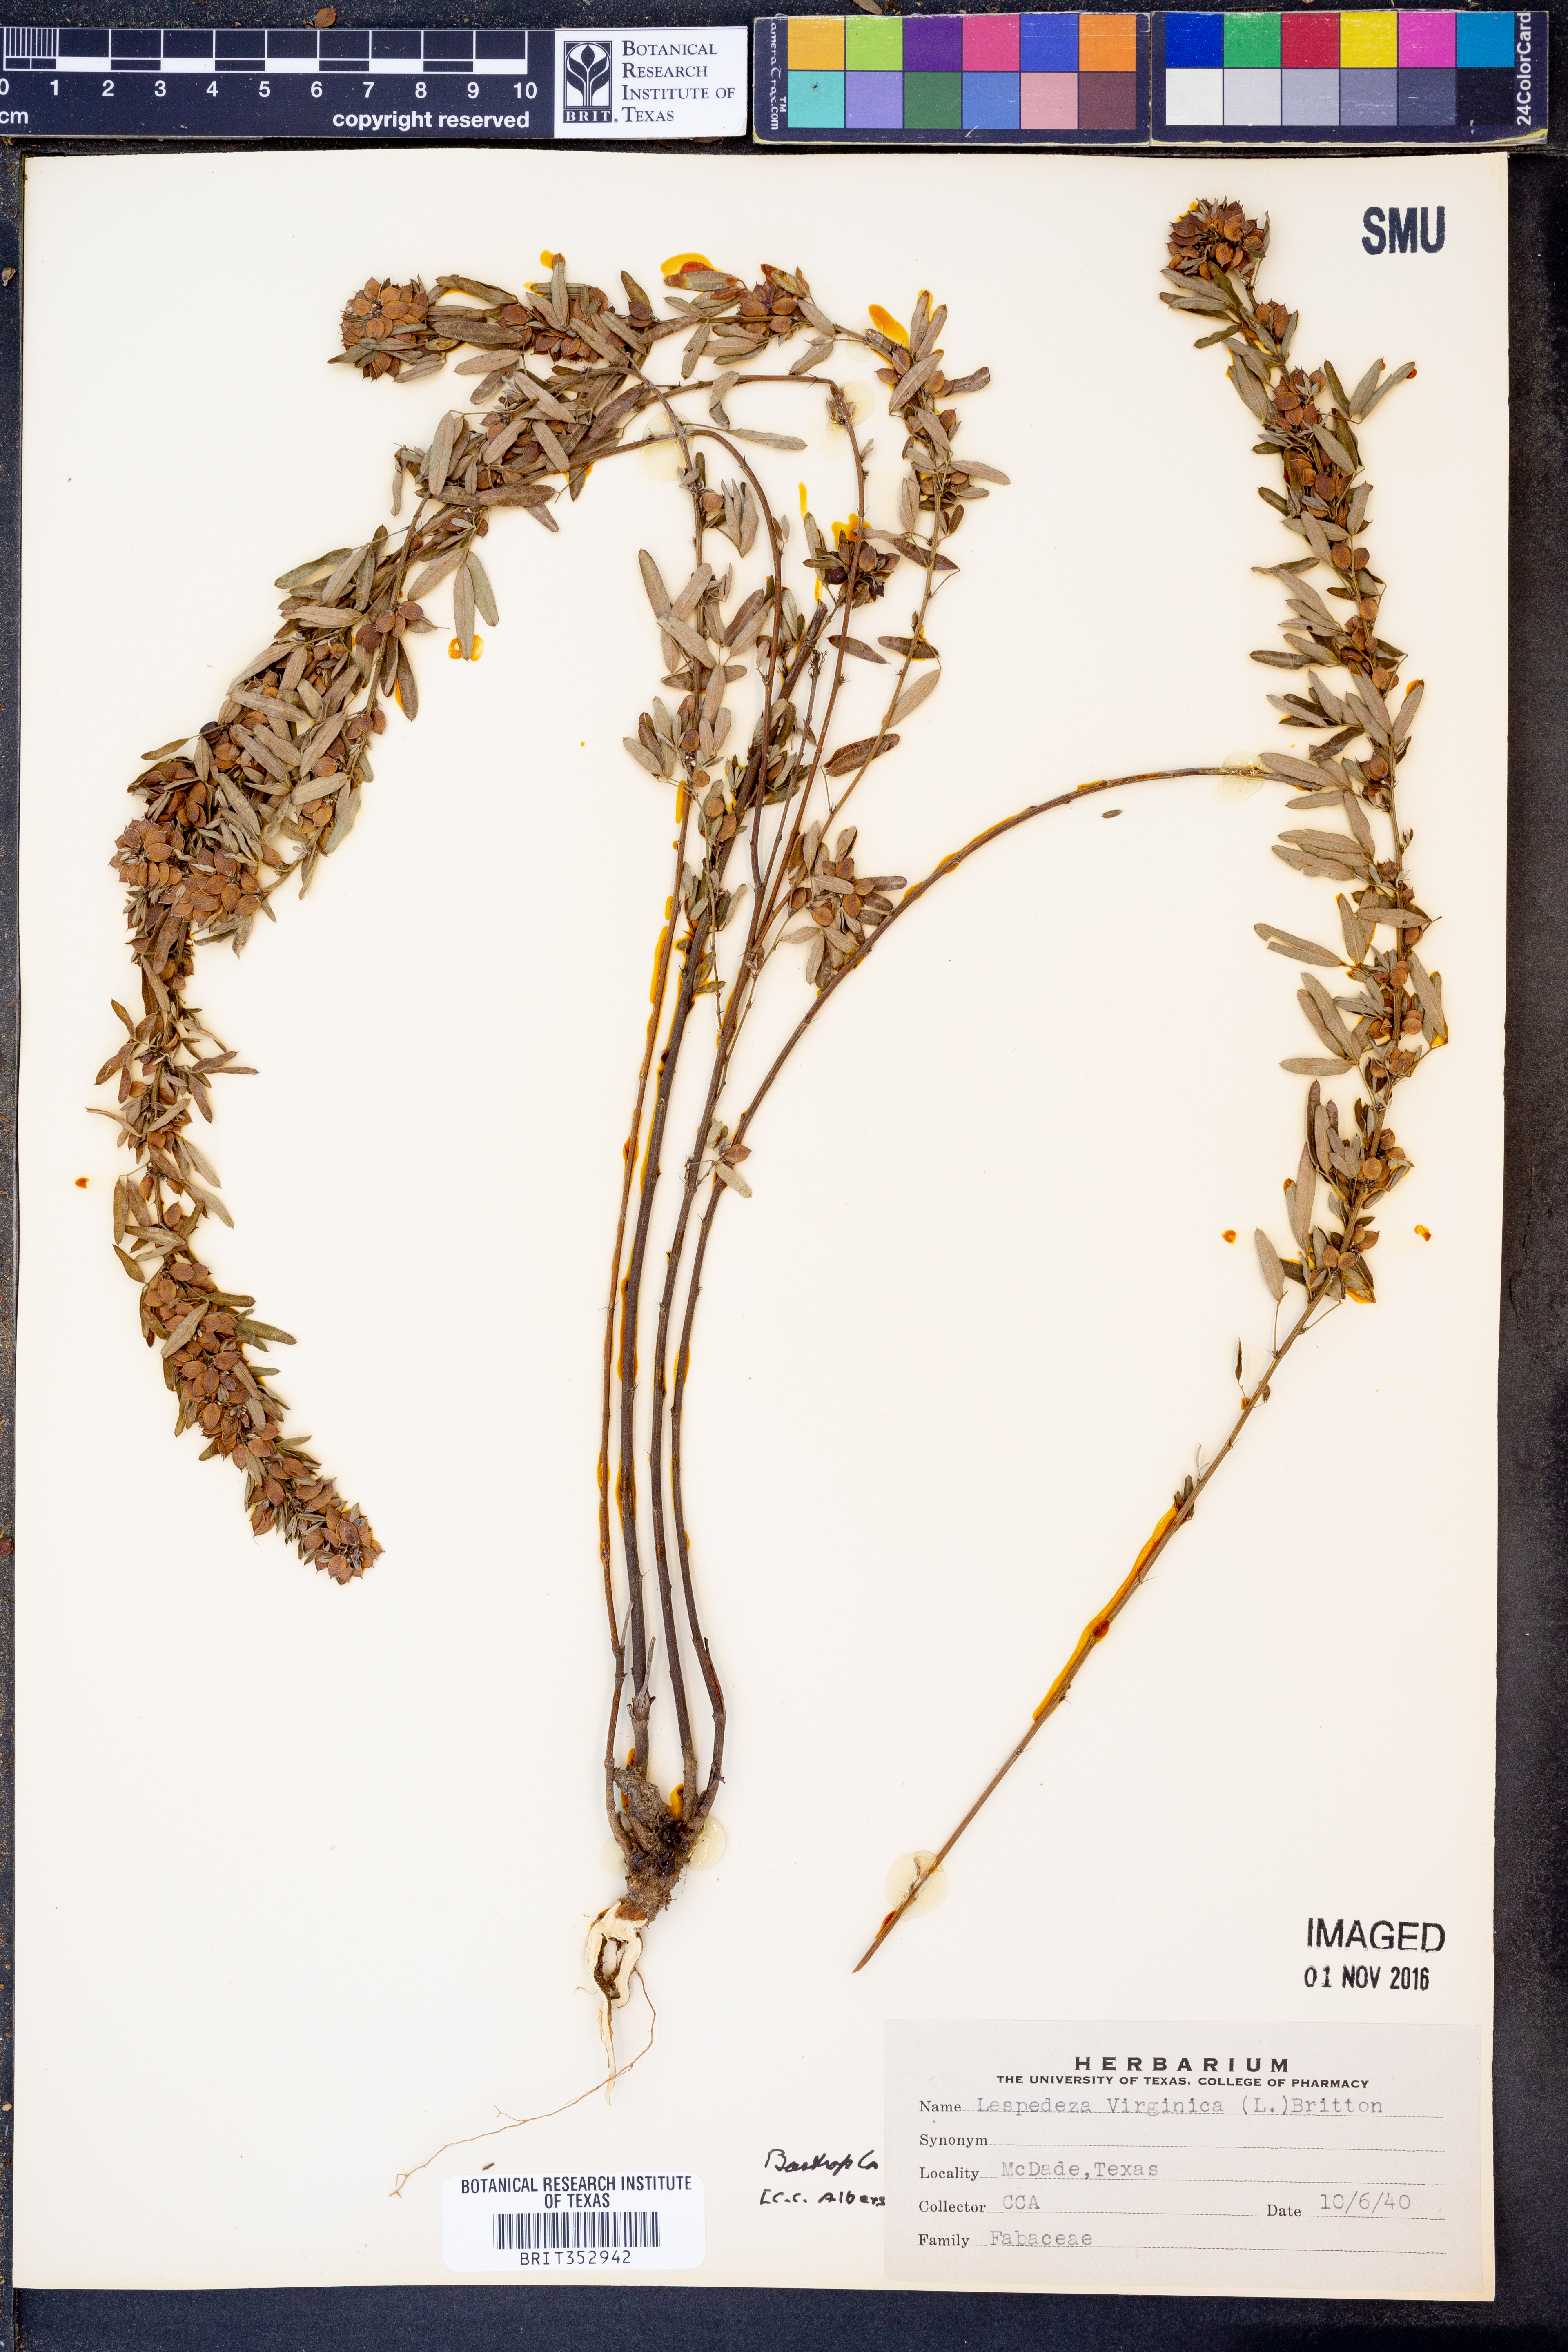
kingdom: Plantae
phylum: Tracheophyta
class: Magnoliopsida
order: Fabales
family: Fabaceae
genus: Lespedeza
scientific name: Lespedeza virginica
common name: Slender bush-clover
